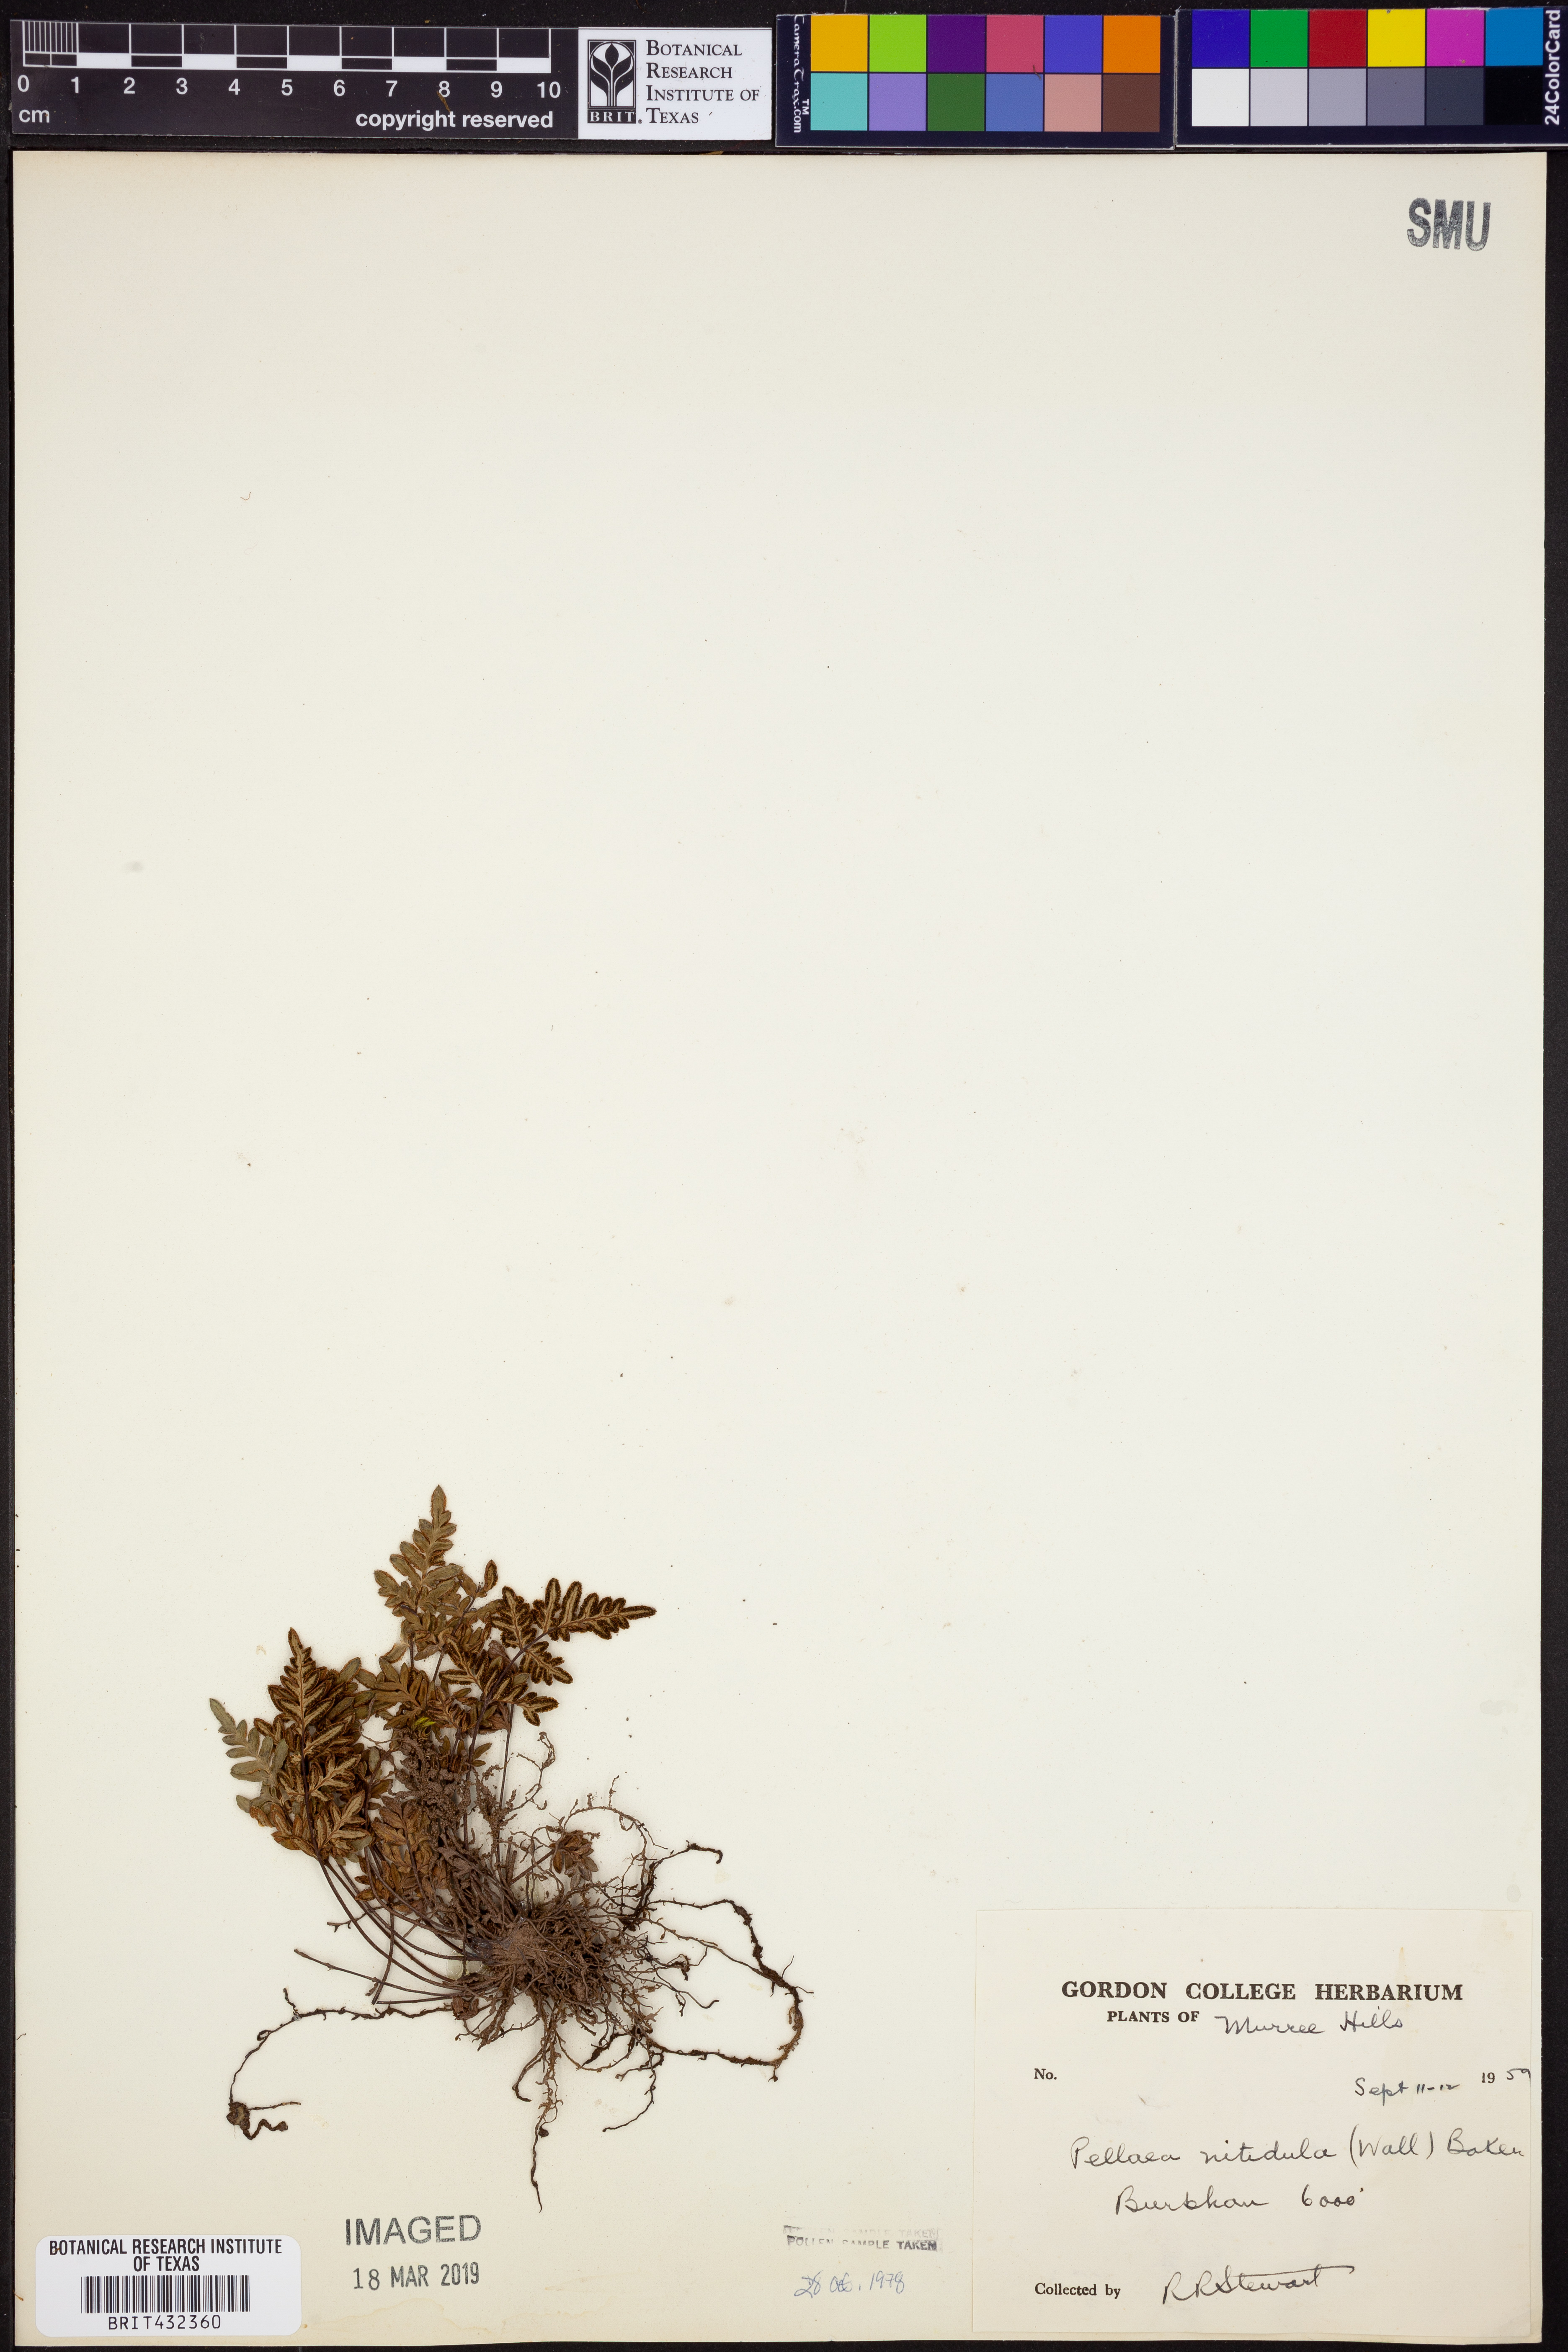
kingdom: Plantae
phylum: Tracheophyta
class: Polypodiopsida
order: Polypodiales
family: Pteridaceae
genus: Mildella
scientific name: Mildella nitidula
